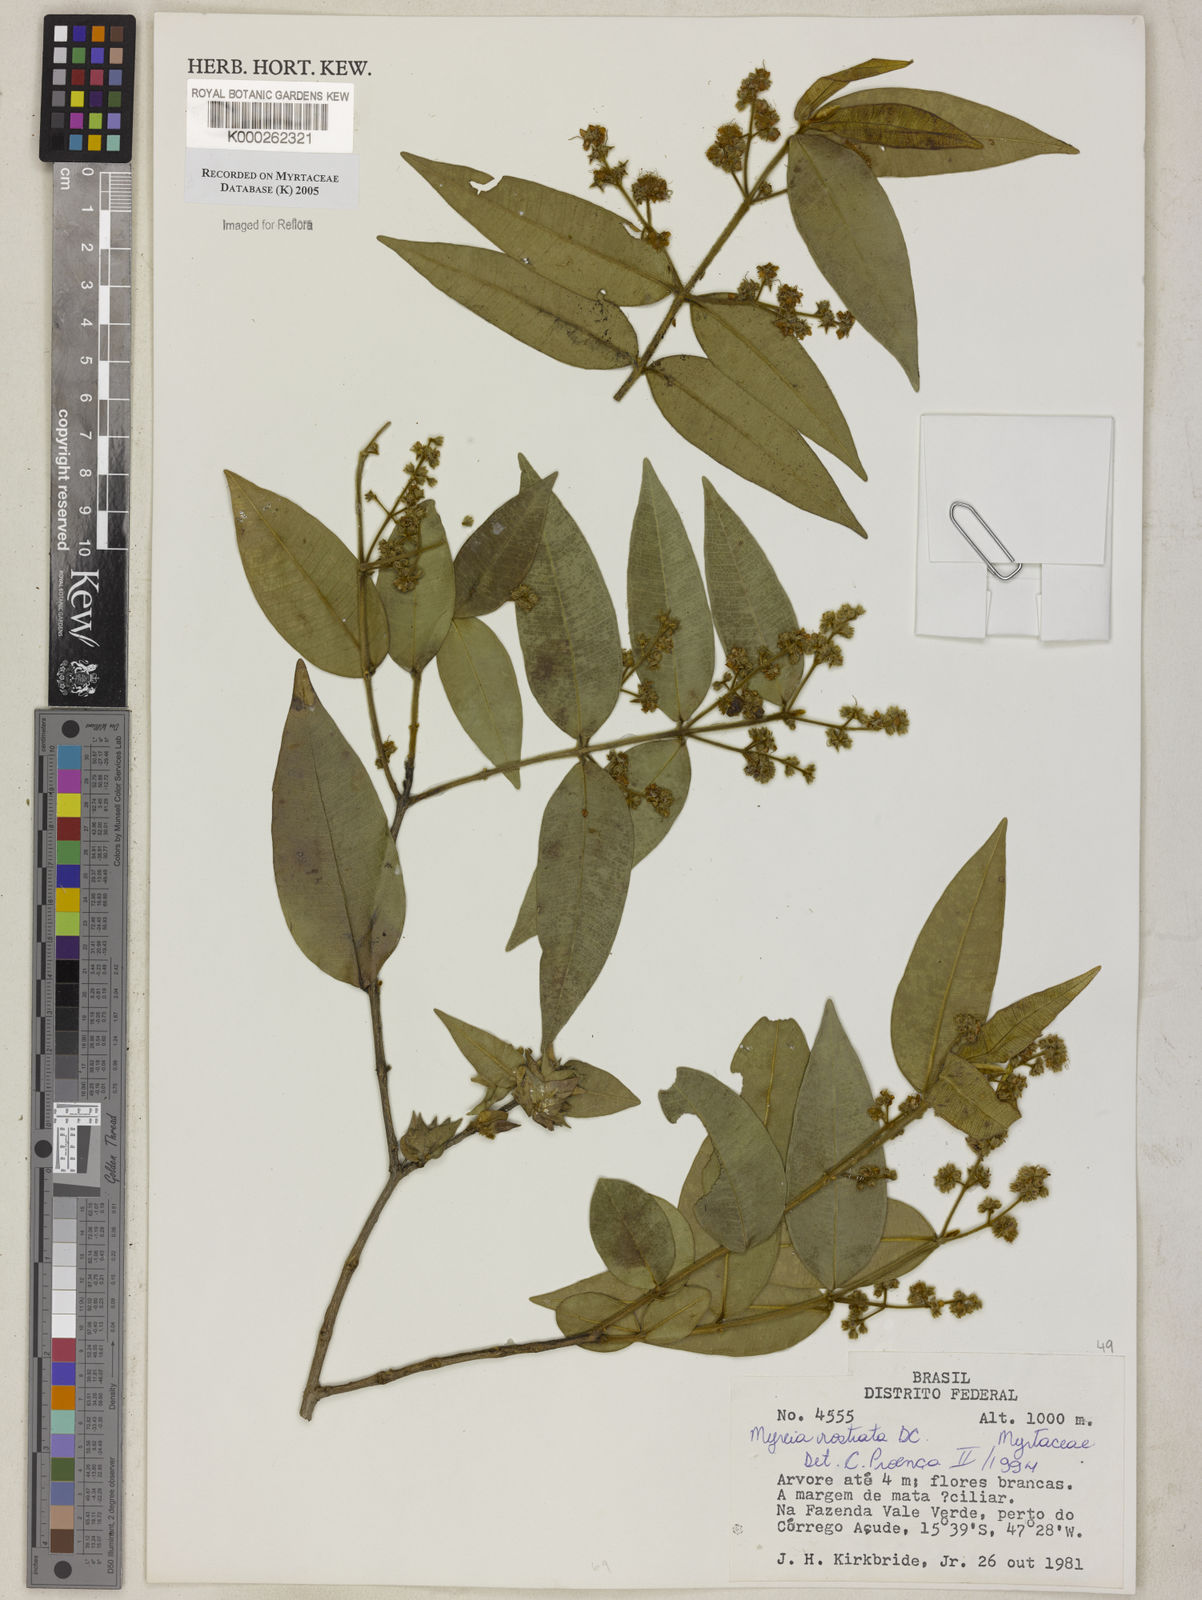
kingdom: Plantae
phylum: Tracheophyta
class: Magnoliopsida
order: Myrtales
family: Myrtaceae
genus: Myrcia
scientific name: Myrcia splendens
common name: Surinam cherry
